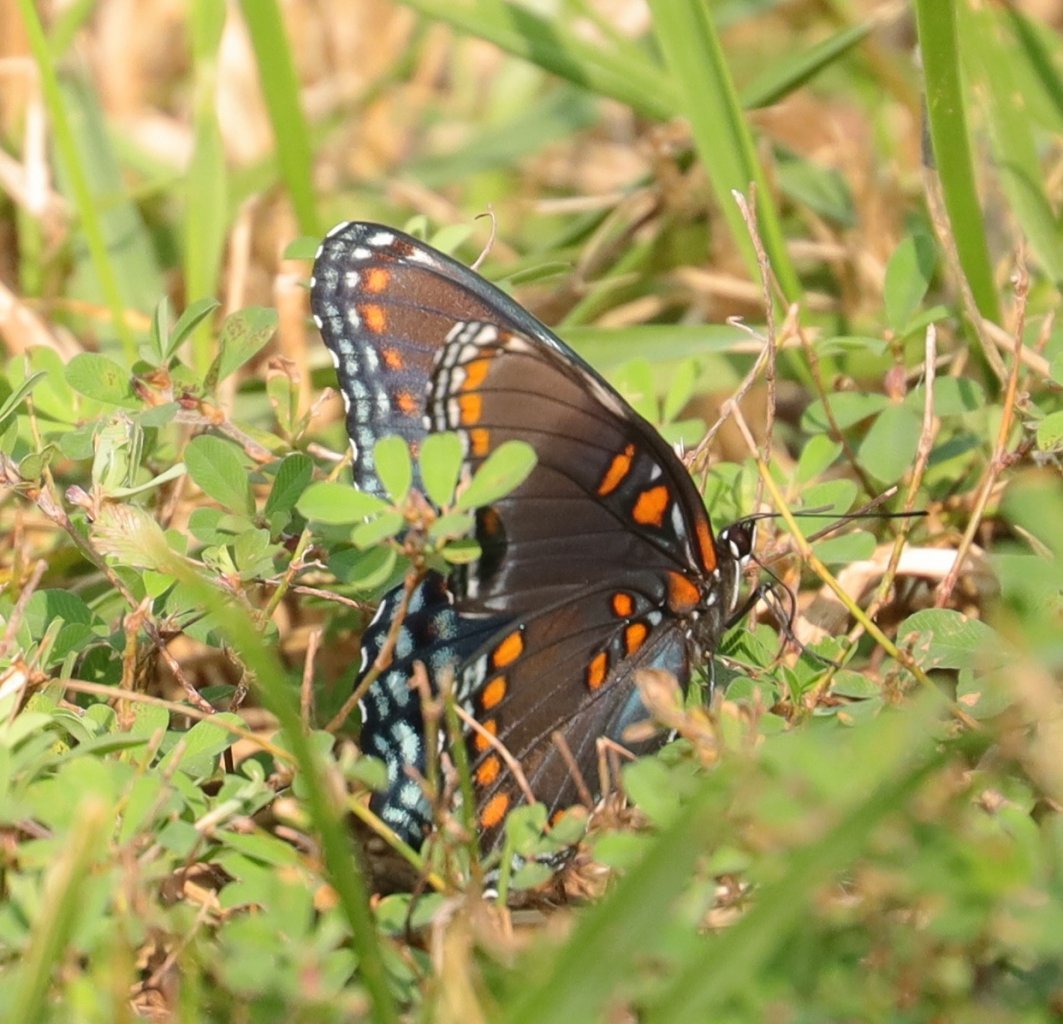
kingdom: Animalia
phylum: Arthropoda
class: Insecta
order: Lepidoptera
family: Nymphalidae
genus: Limenitis
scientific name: Limenitis astyanax
